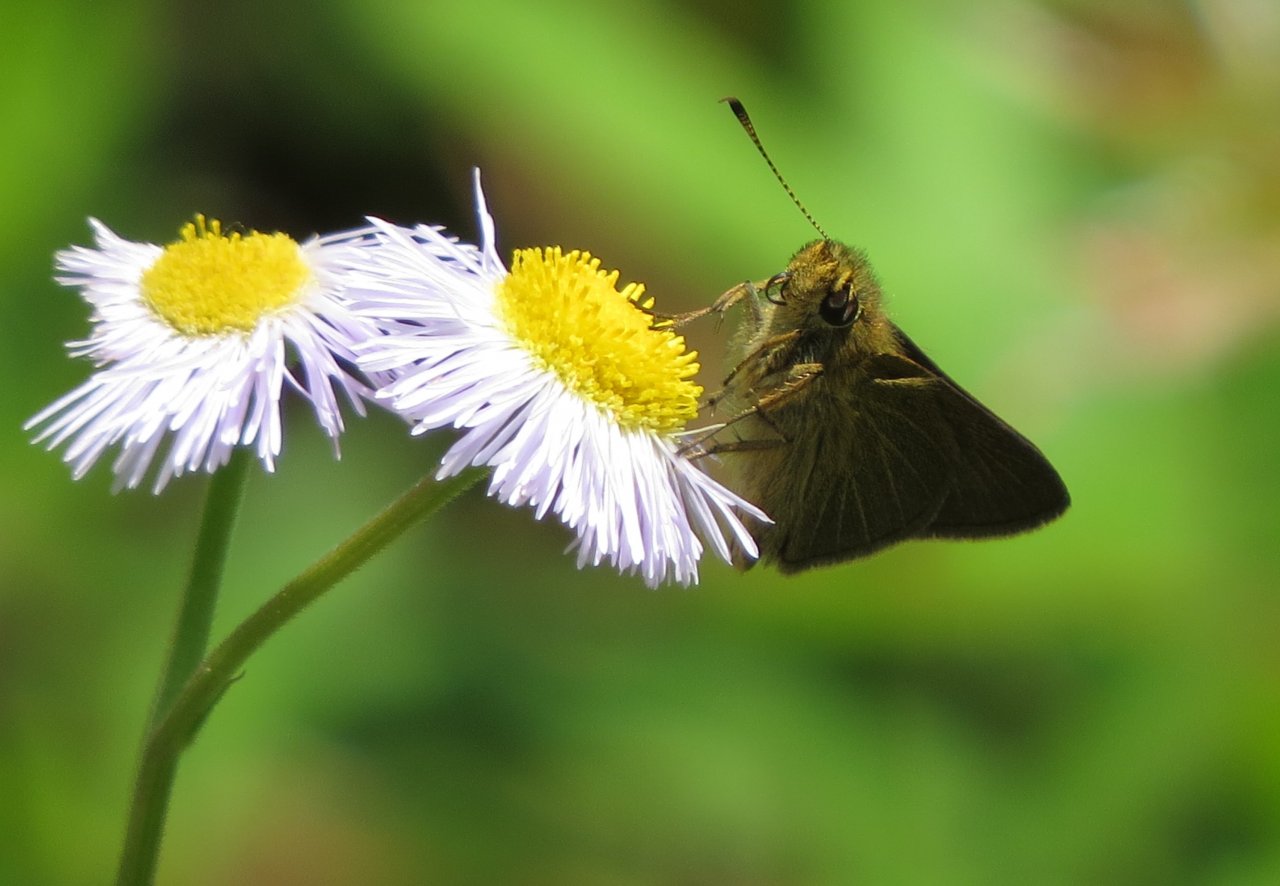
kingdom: Animalia
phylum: Arthropoda
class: Insecta
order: Lepidoptera
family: Hesperiidae
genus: Nastra
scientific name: Nastra lherminier
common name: Swarthy Skipper
